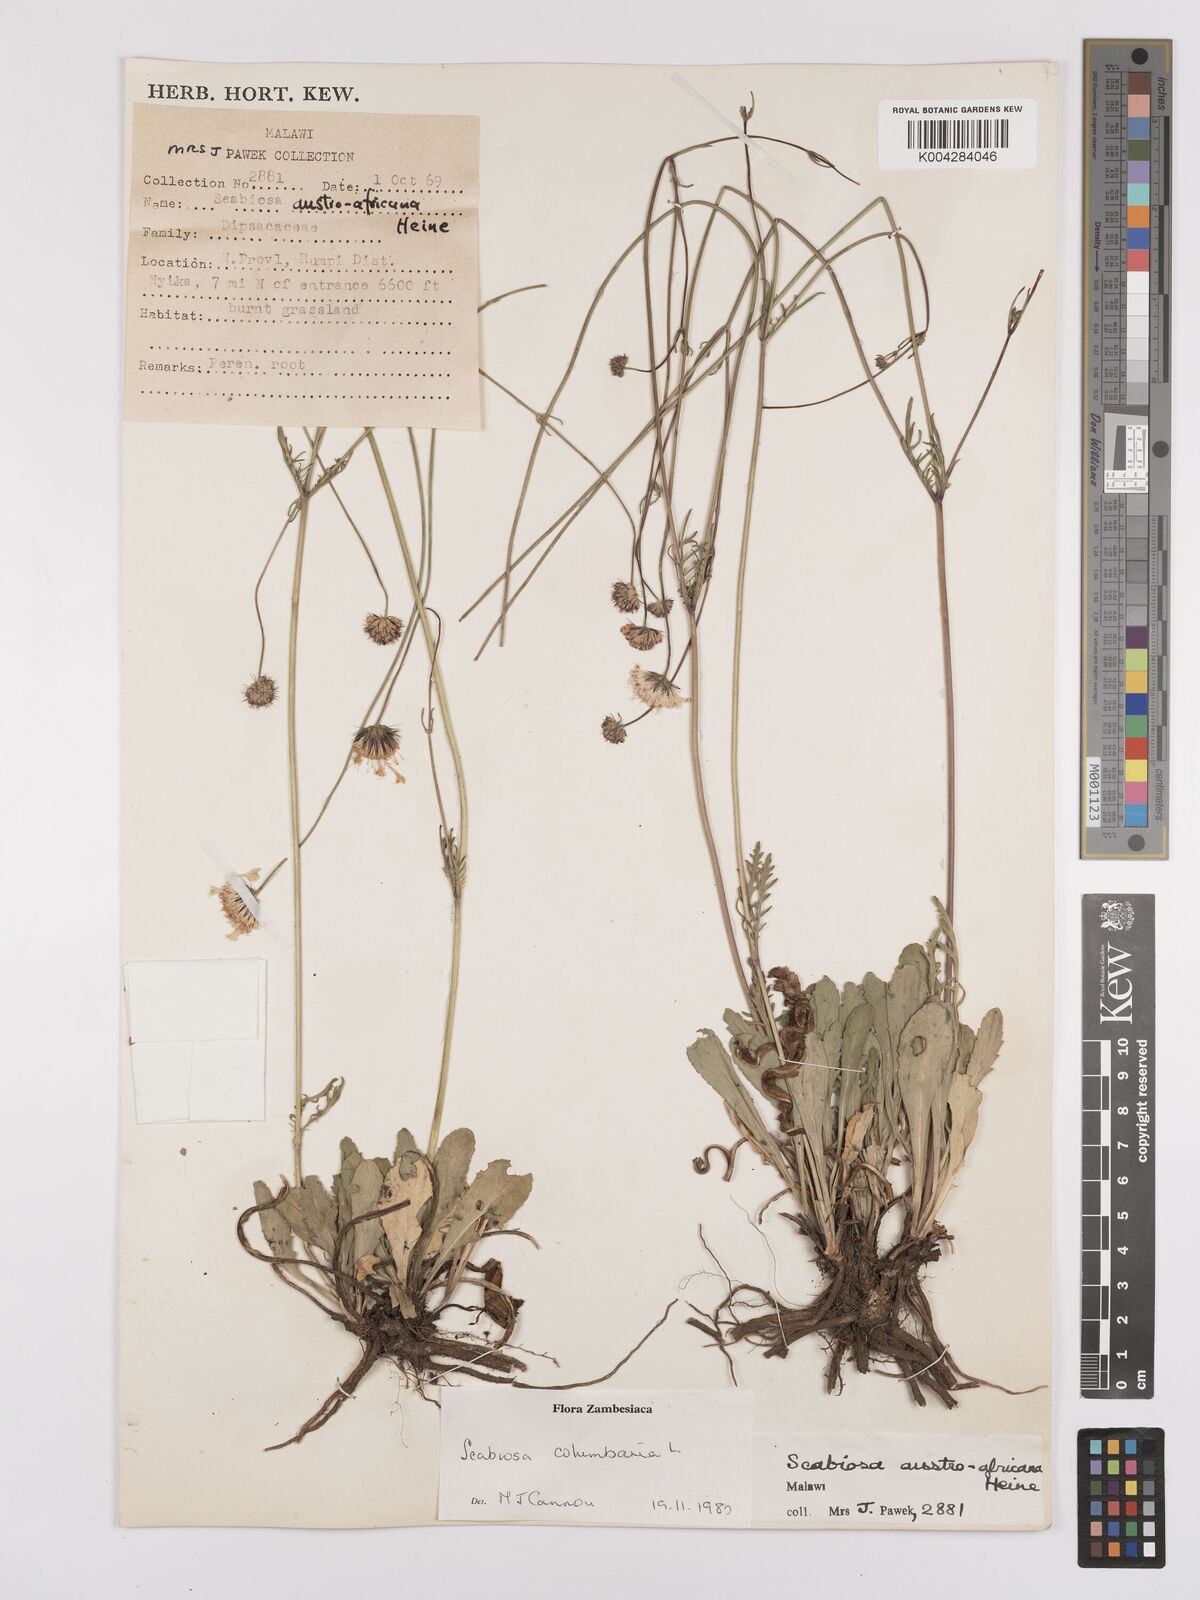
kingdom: Plantae
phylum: Tracheophyta
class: Magnoliopsida
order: Dipsacales
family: Caprifoliaceae
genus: Scabiosa
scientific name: Scabiosa austroafricana
